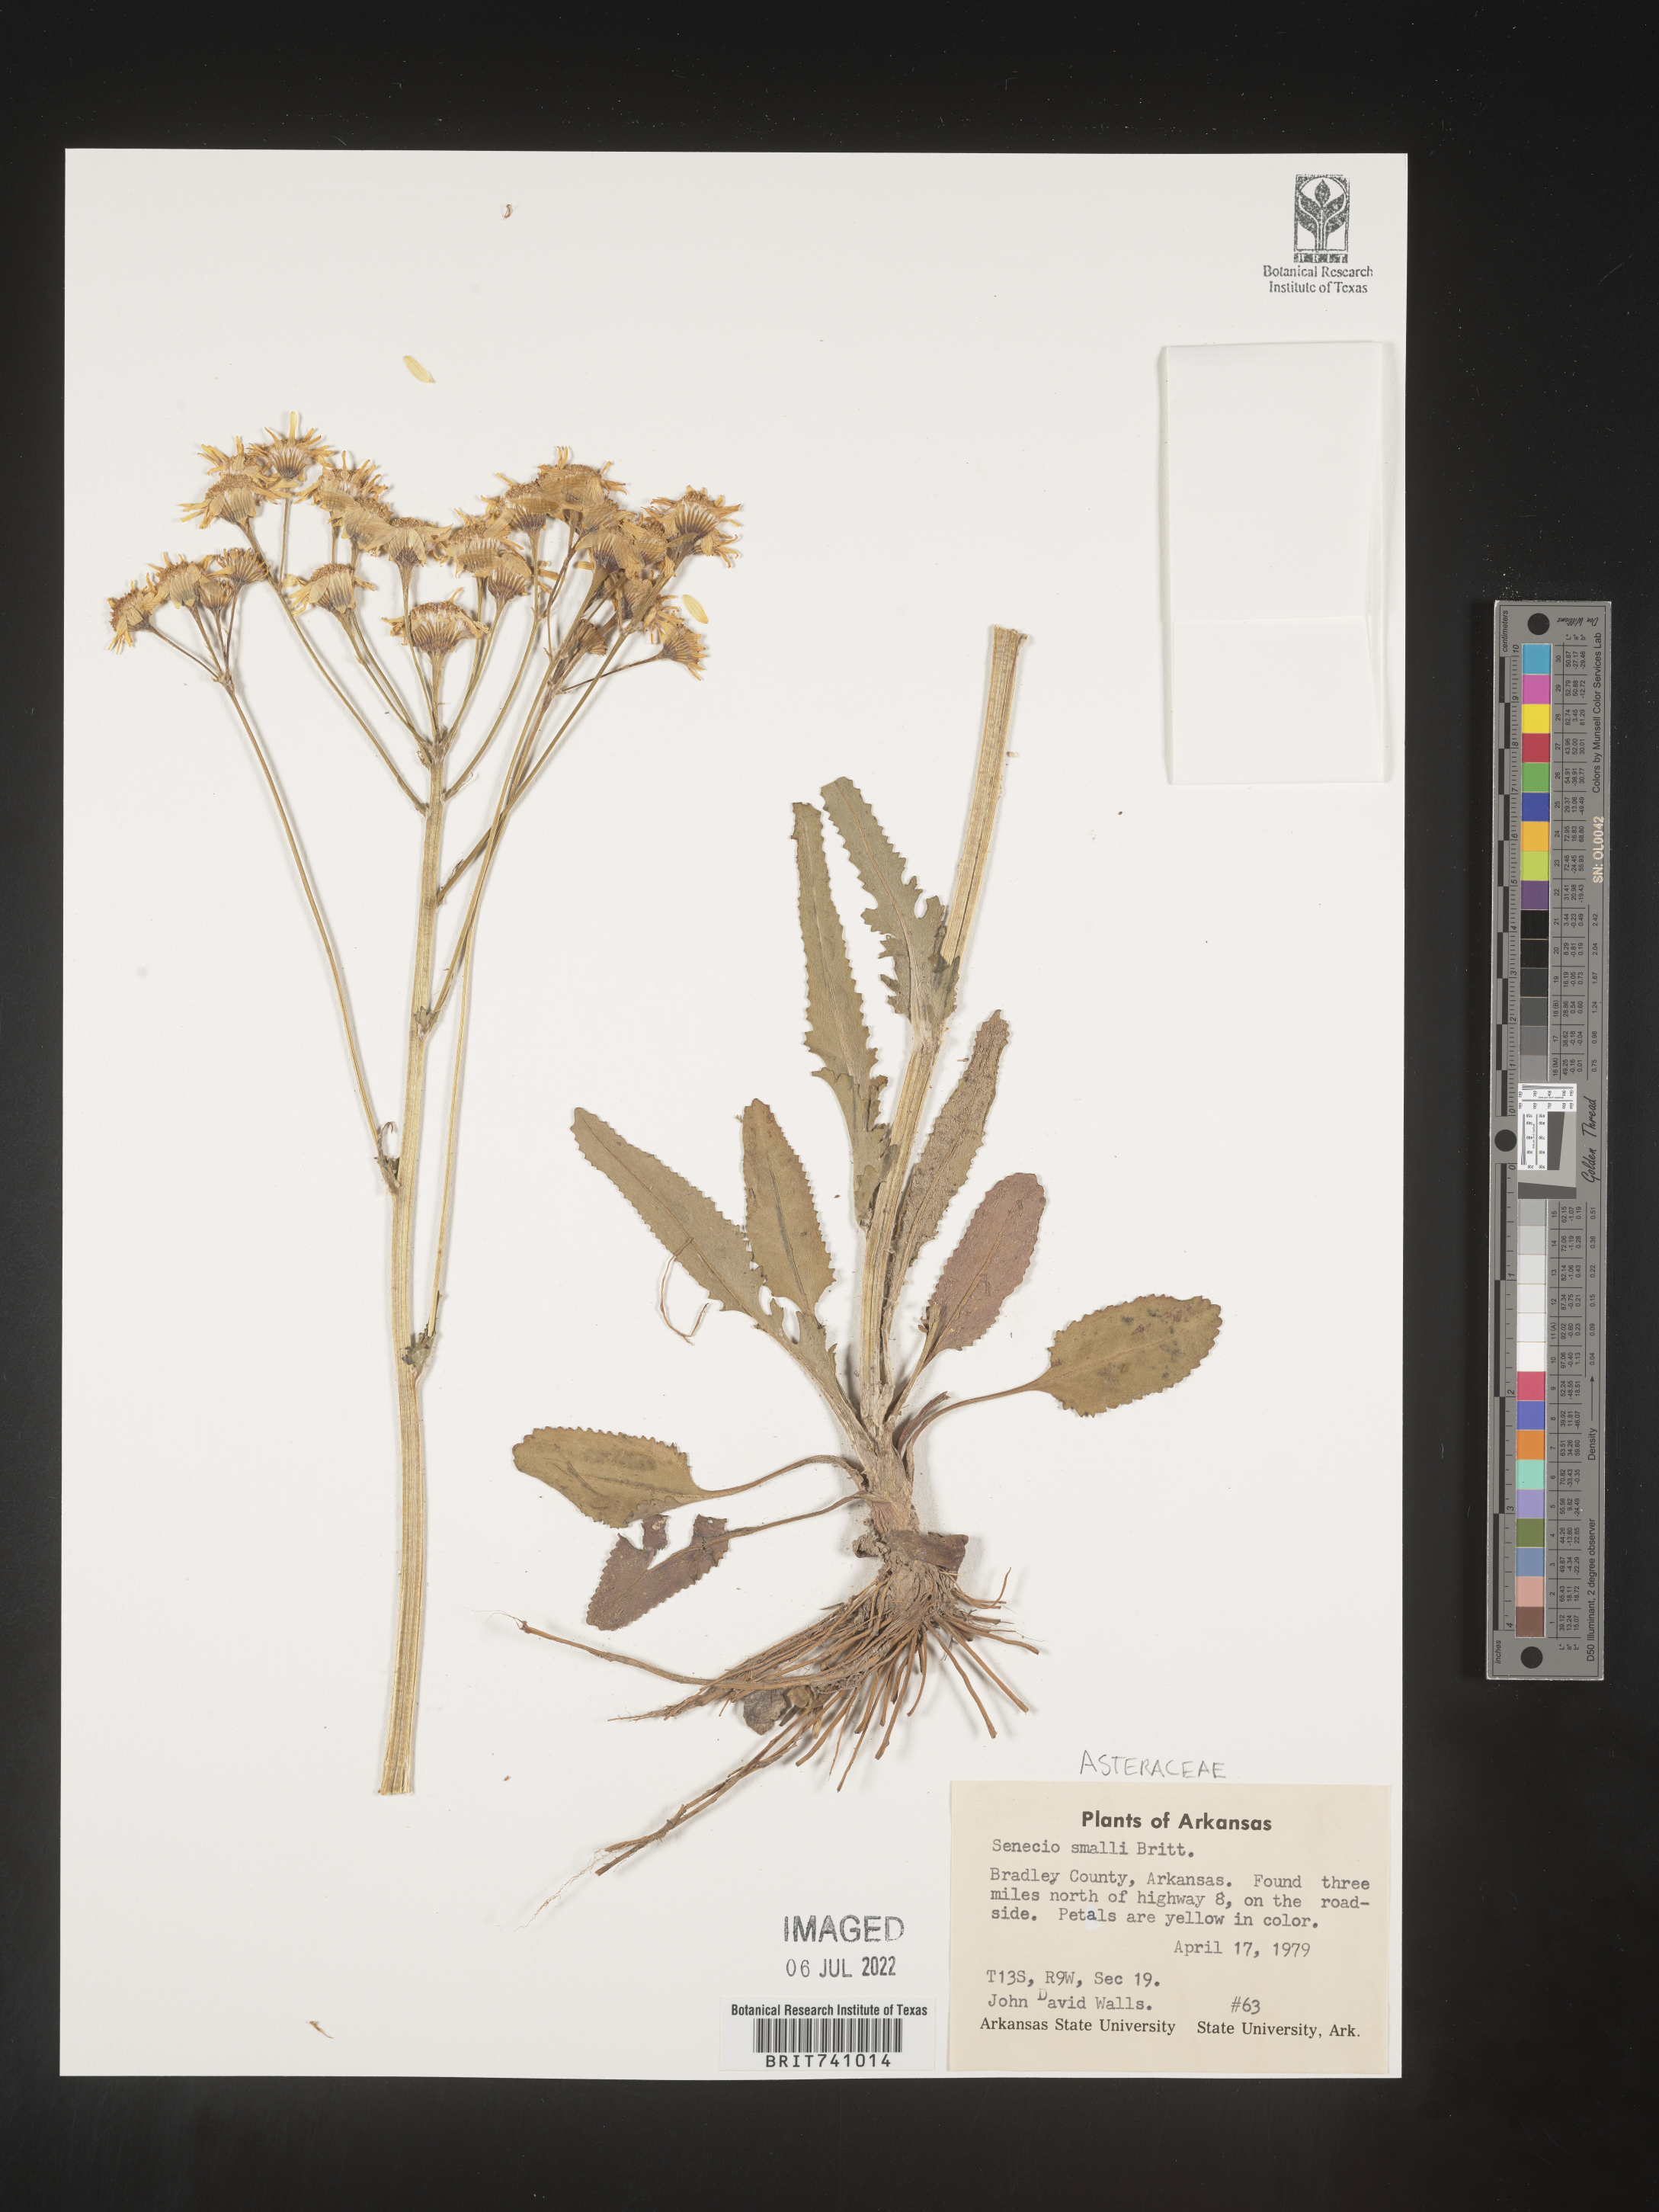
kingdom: Plantae
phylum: Tracheophyta
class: Magnoliopsida
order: Asterales
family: Asteraceae
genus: Packera
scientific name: Packera anonyma
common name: Small ragwort
